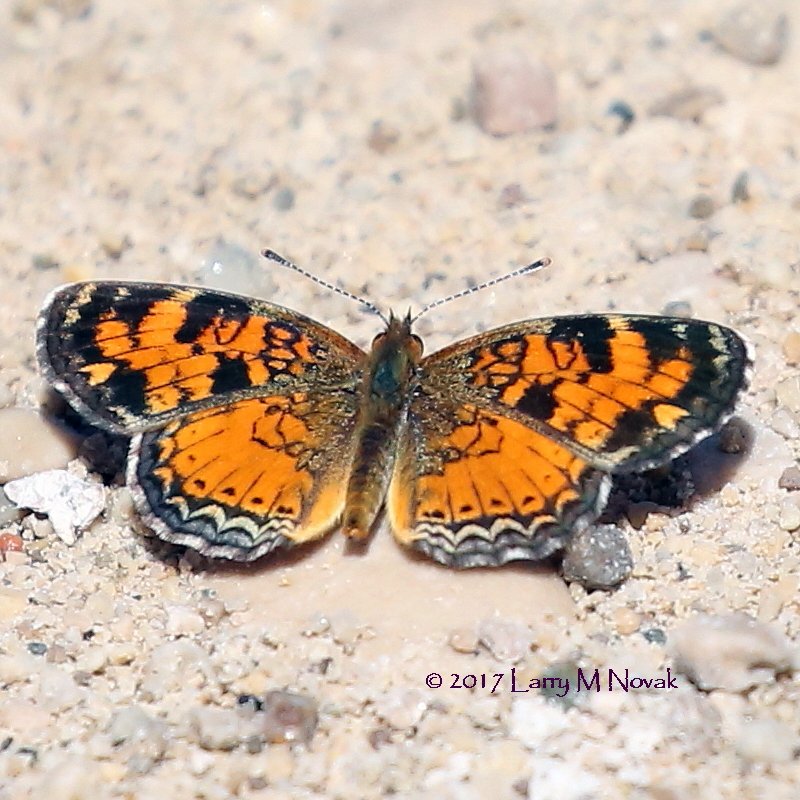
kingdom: Animalia
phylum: Arthropoda
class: Insecta
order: Lepidoptera
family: Nymphalidae
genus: Phyciodes
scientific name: Phyciodes tharos
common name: Northern Crescent
